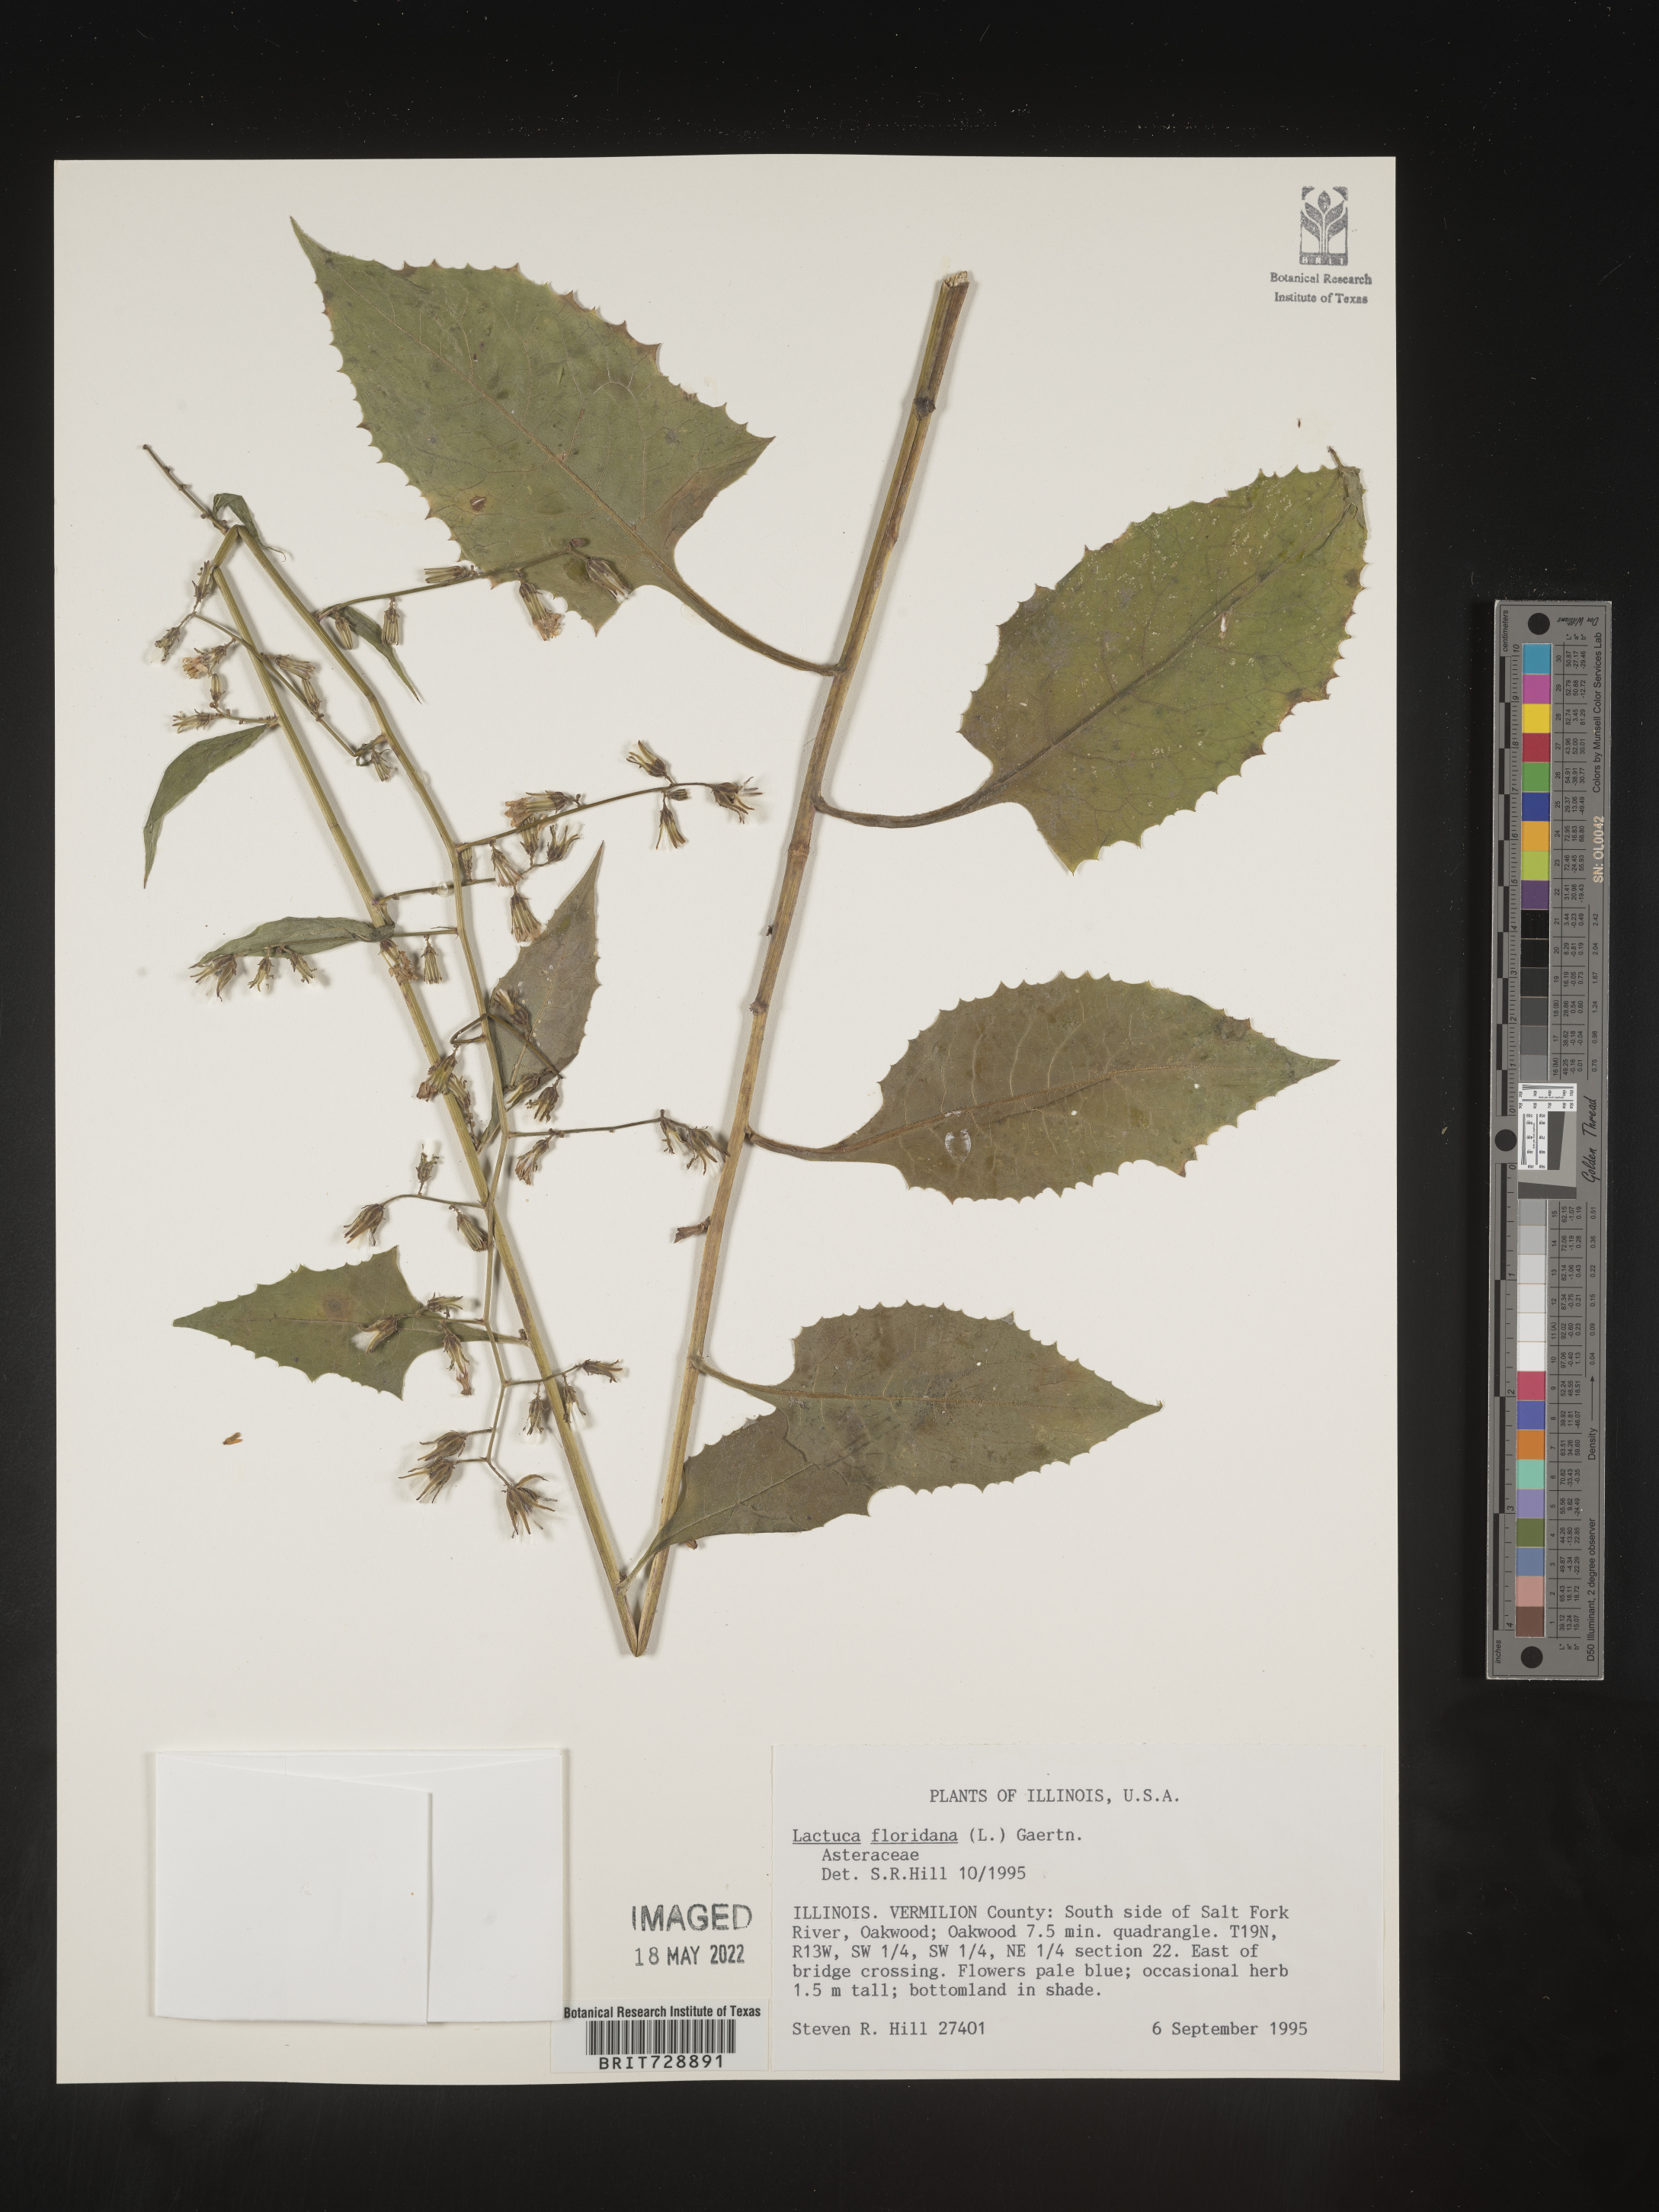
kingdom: Plantae
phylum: Tracheophyta
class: Magnoliopsida
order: Asterales
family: Asteraceae
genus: Lactuca
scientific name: Lactuca floridana
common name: Woodland lettuce
